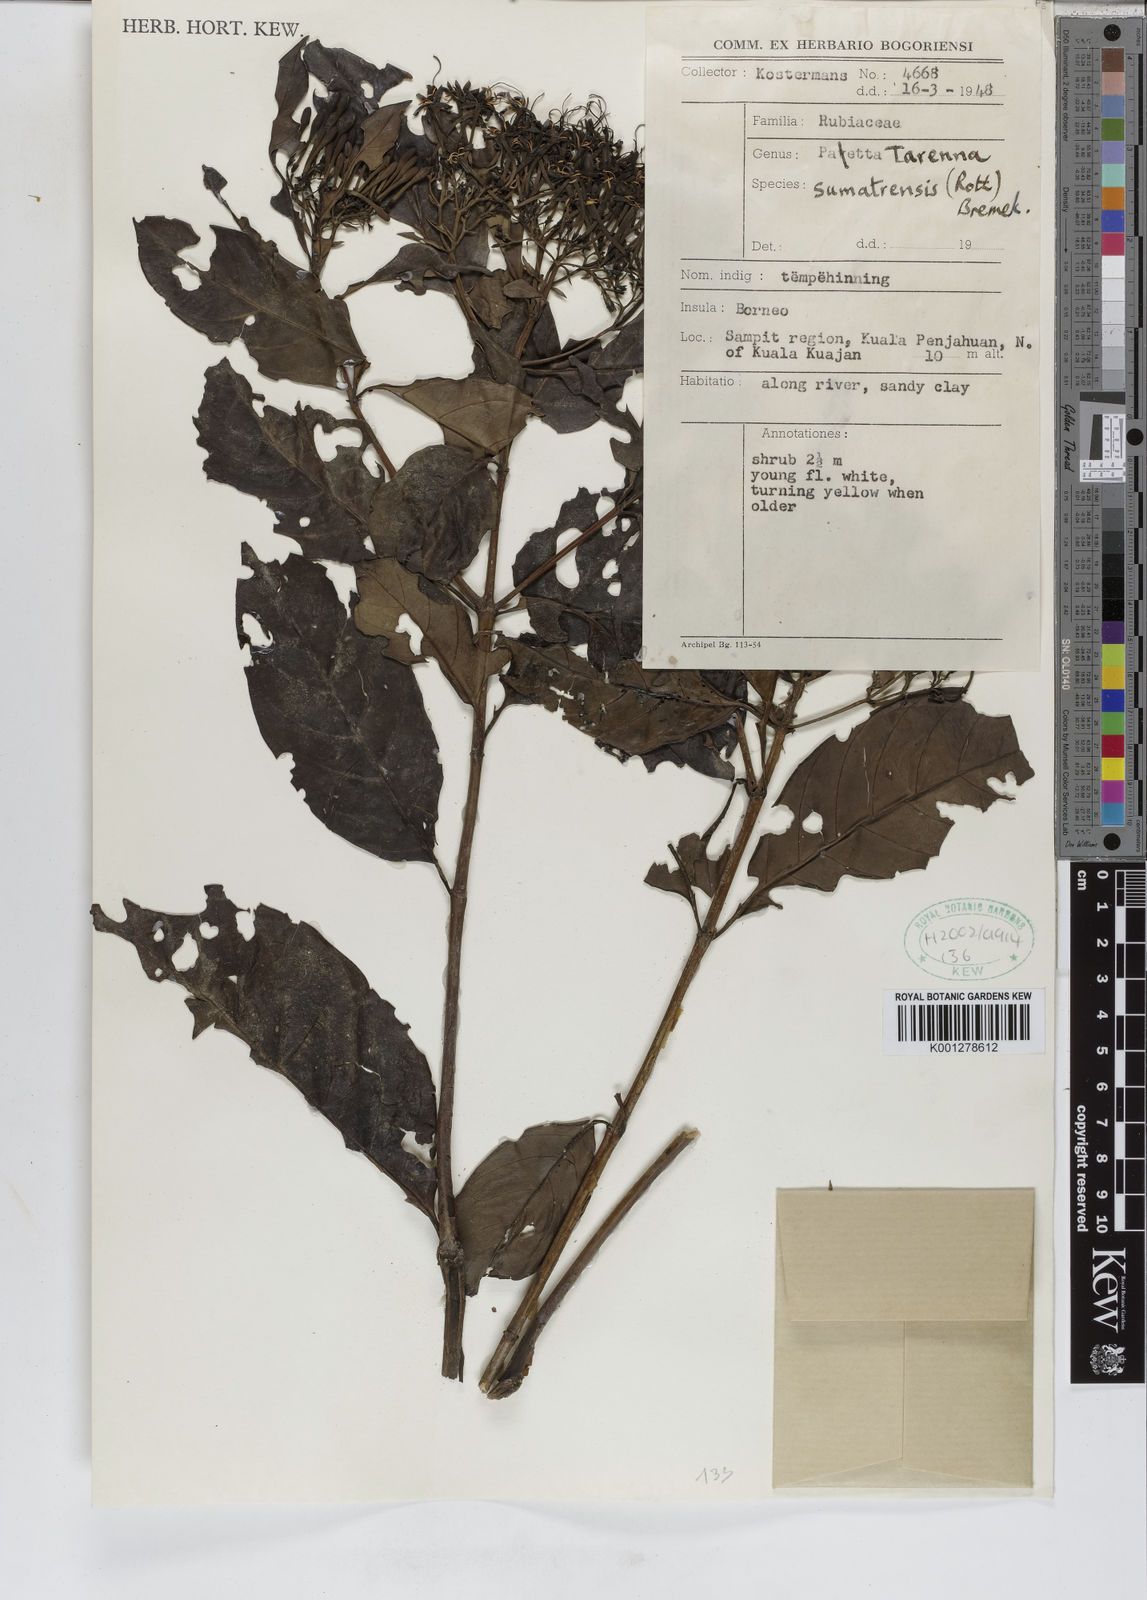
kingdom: Plantae
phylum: Tracheophyta
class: Magnoliopsida
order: Gentianales
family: Rubiaceae
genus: Tarenna
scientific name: Tarenna sumatrensis
